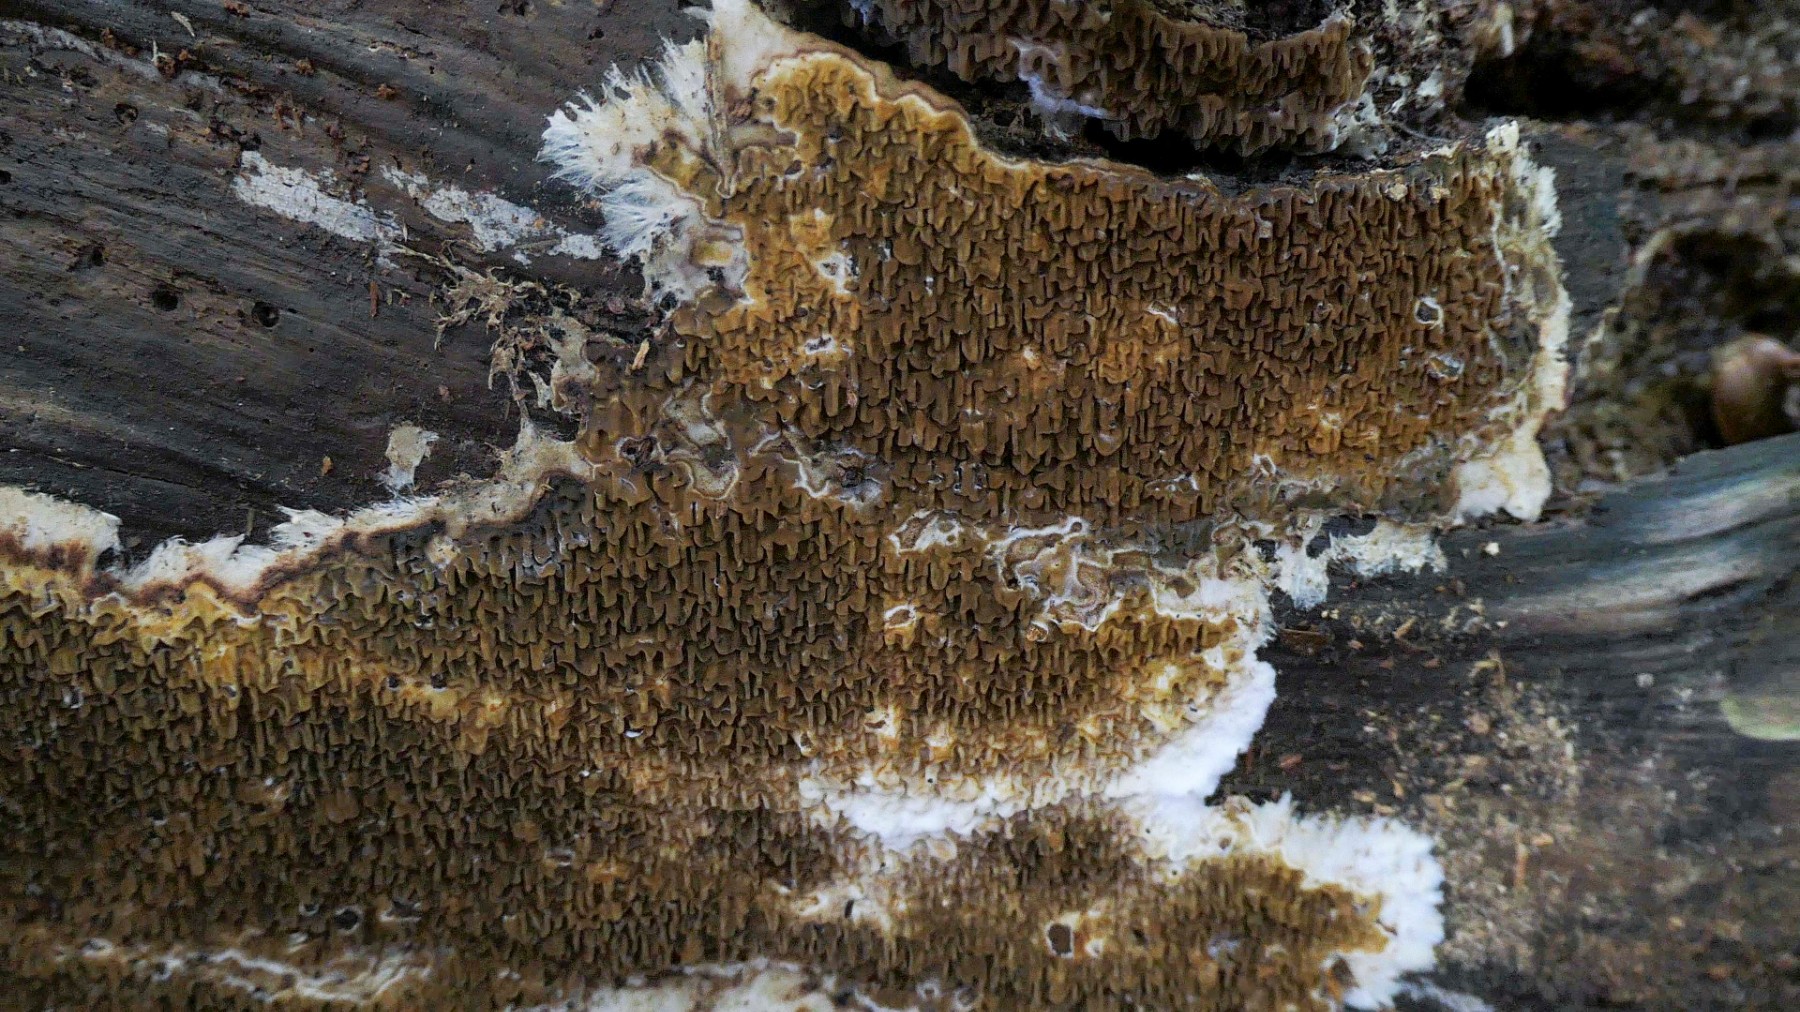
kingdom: Fungi
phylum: Basidiomycota
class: Agaricomycetes
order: Boletales
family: Serpulaceae
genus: Serpula
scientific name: Serpula himantioides
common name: tyndkødet hussvamp
